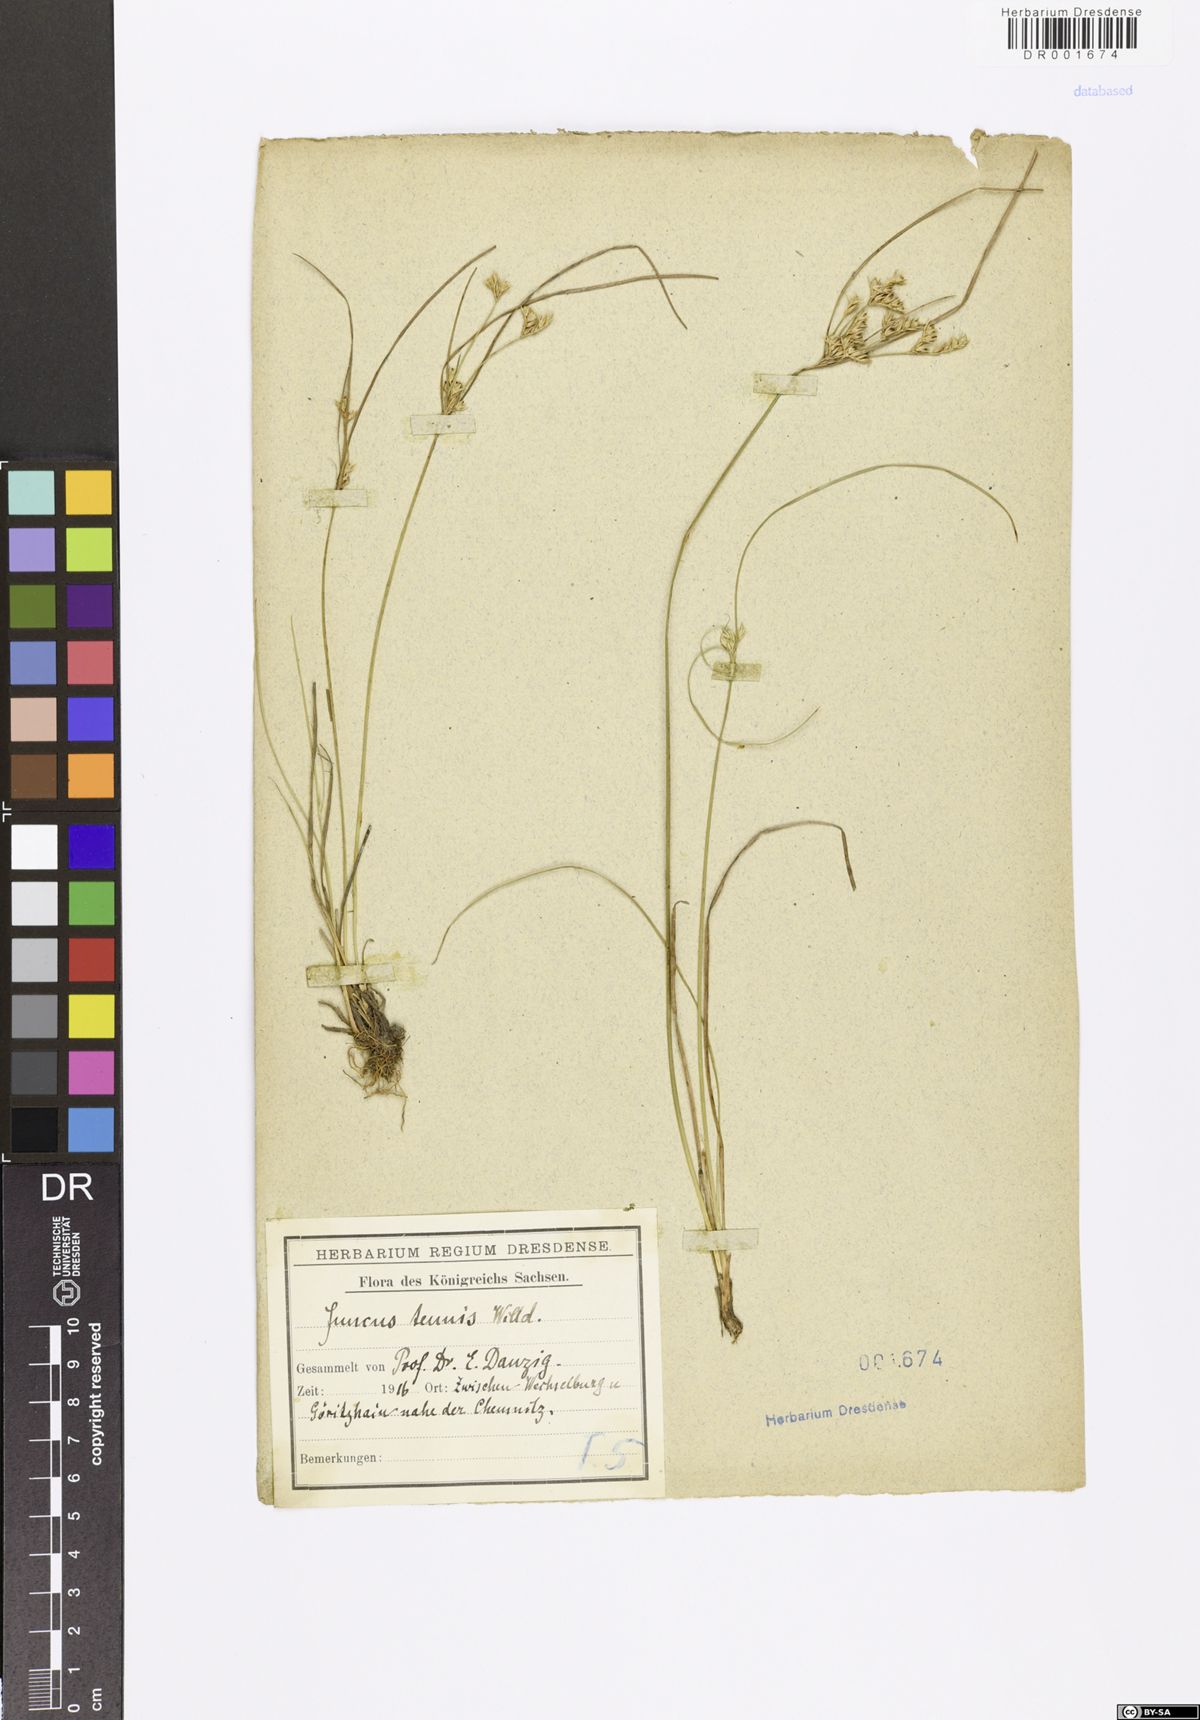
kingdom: Plantae
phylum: Tracheophyta
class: Liliopsida
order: Poales
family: Juncaceae
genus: Juncus
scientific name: Juncus tenuis
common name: Slender rush
